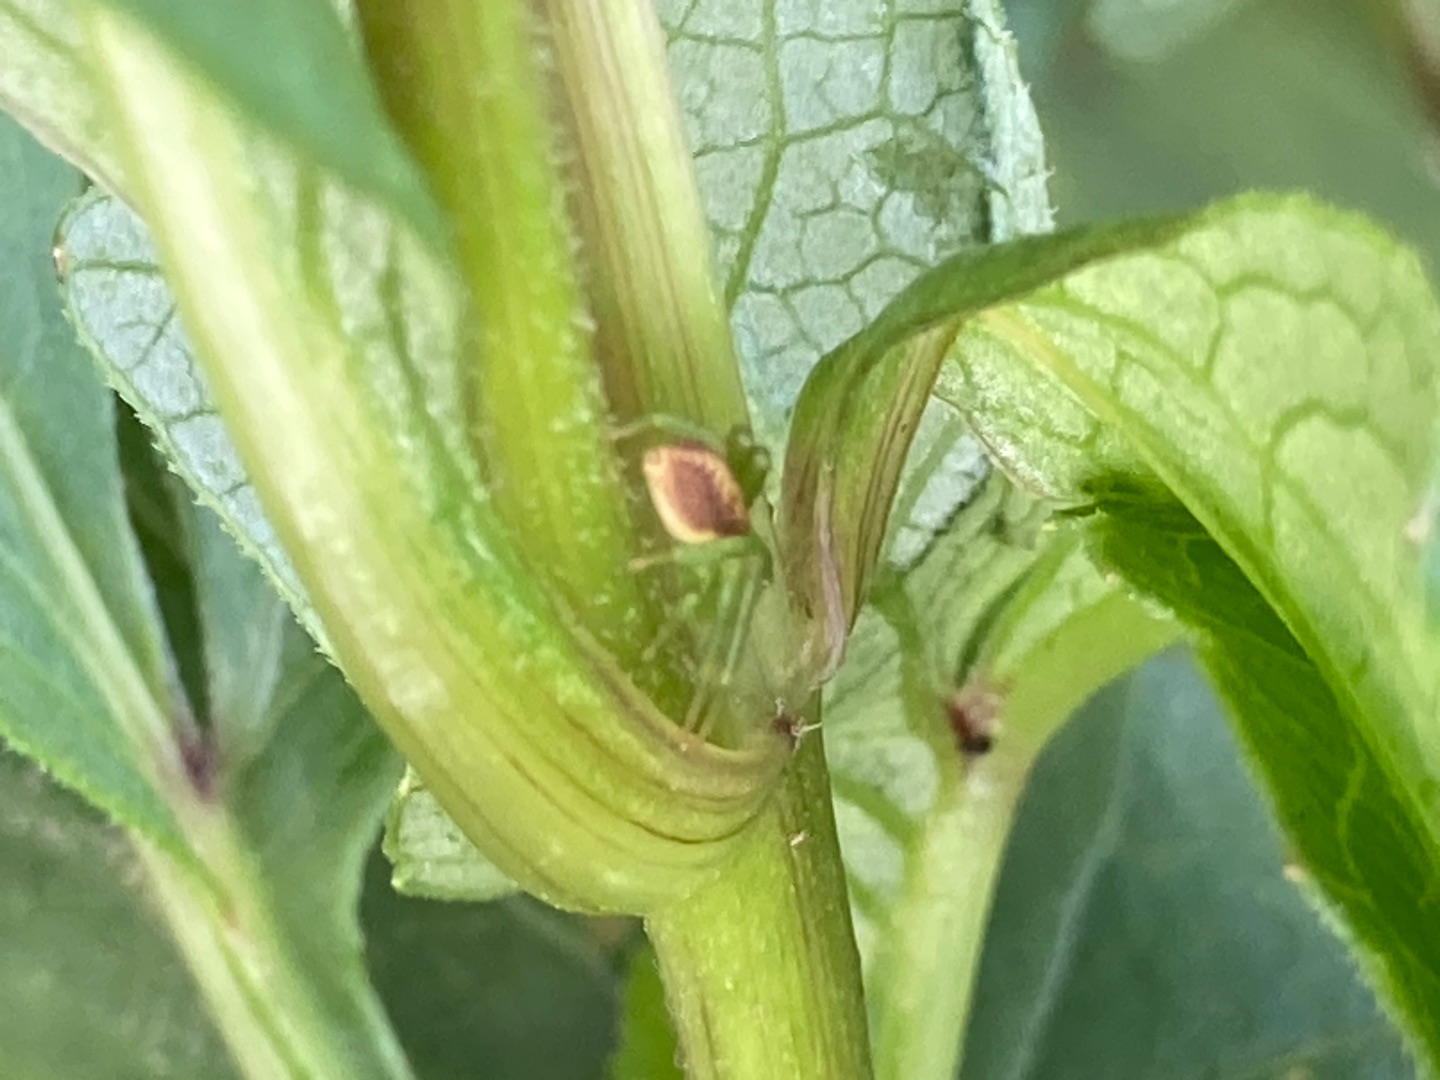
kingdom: Animalia
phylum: Arthropoda
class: Arachnida
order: Araneae
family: Thomisidae
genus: Diaea
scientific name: Diaea dorsata
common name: Grøn krabbeedderkop
